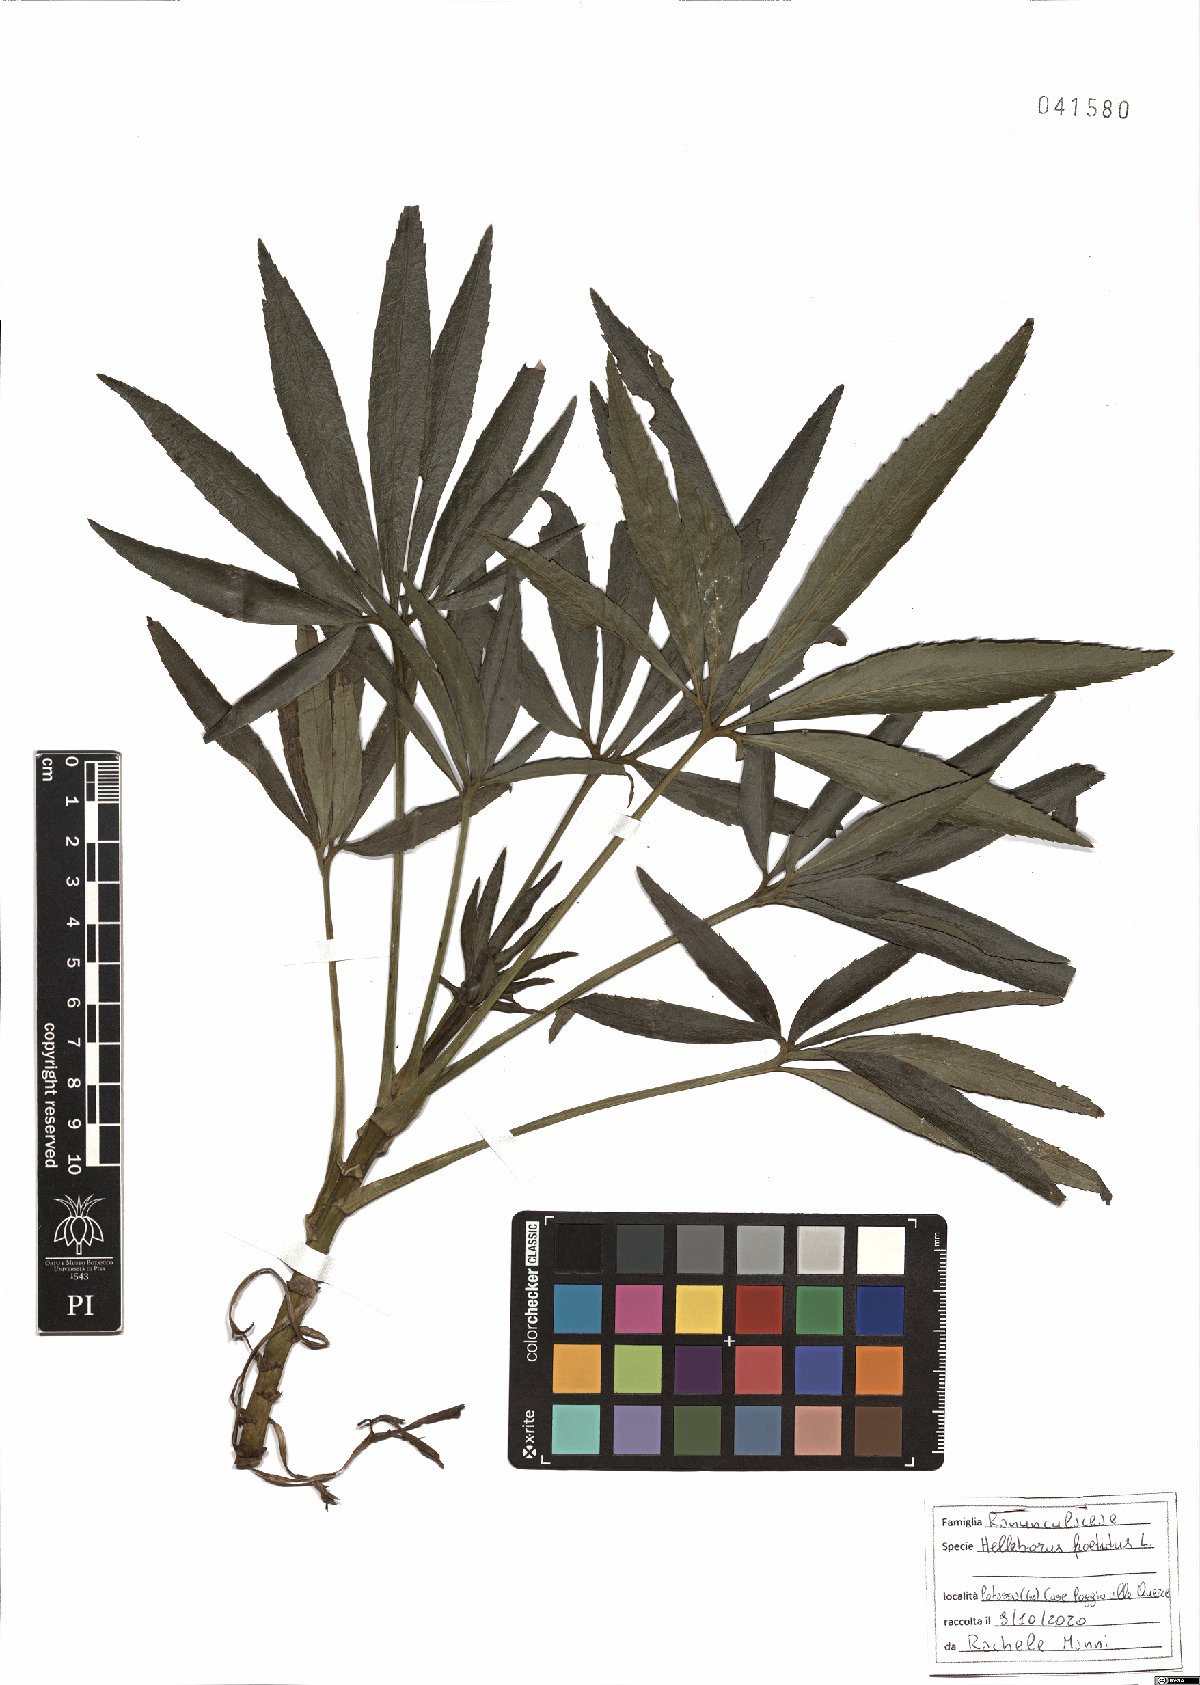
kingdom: Plantae
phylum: Tracheophyta
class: Magnoliopsida
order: Ranunculales
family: Ranunculaceae
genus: Helleborus
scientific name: Helleborus foetidus
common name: Stinking hellebore
